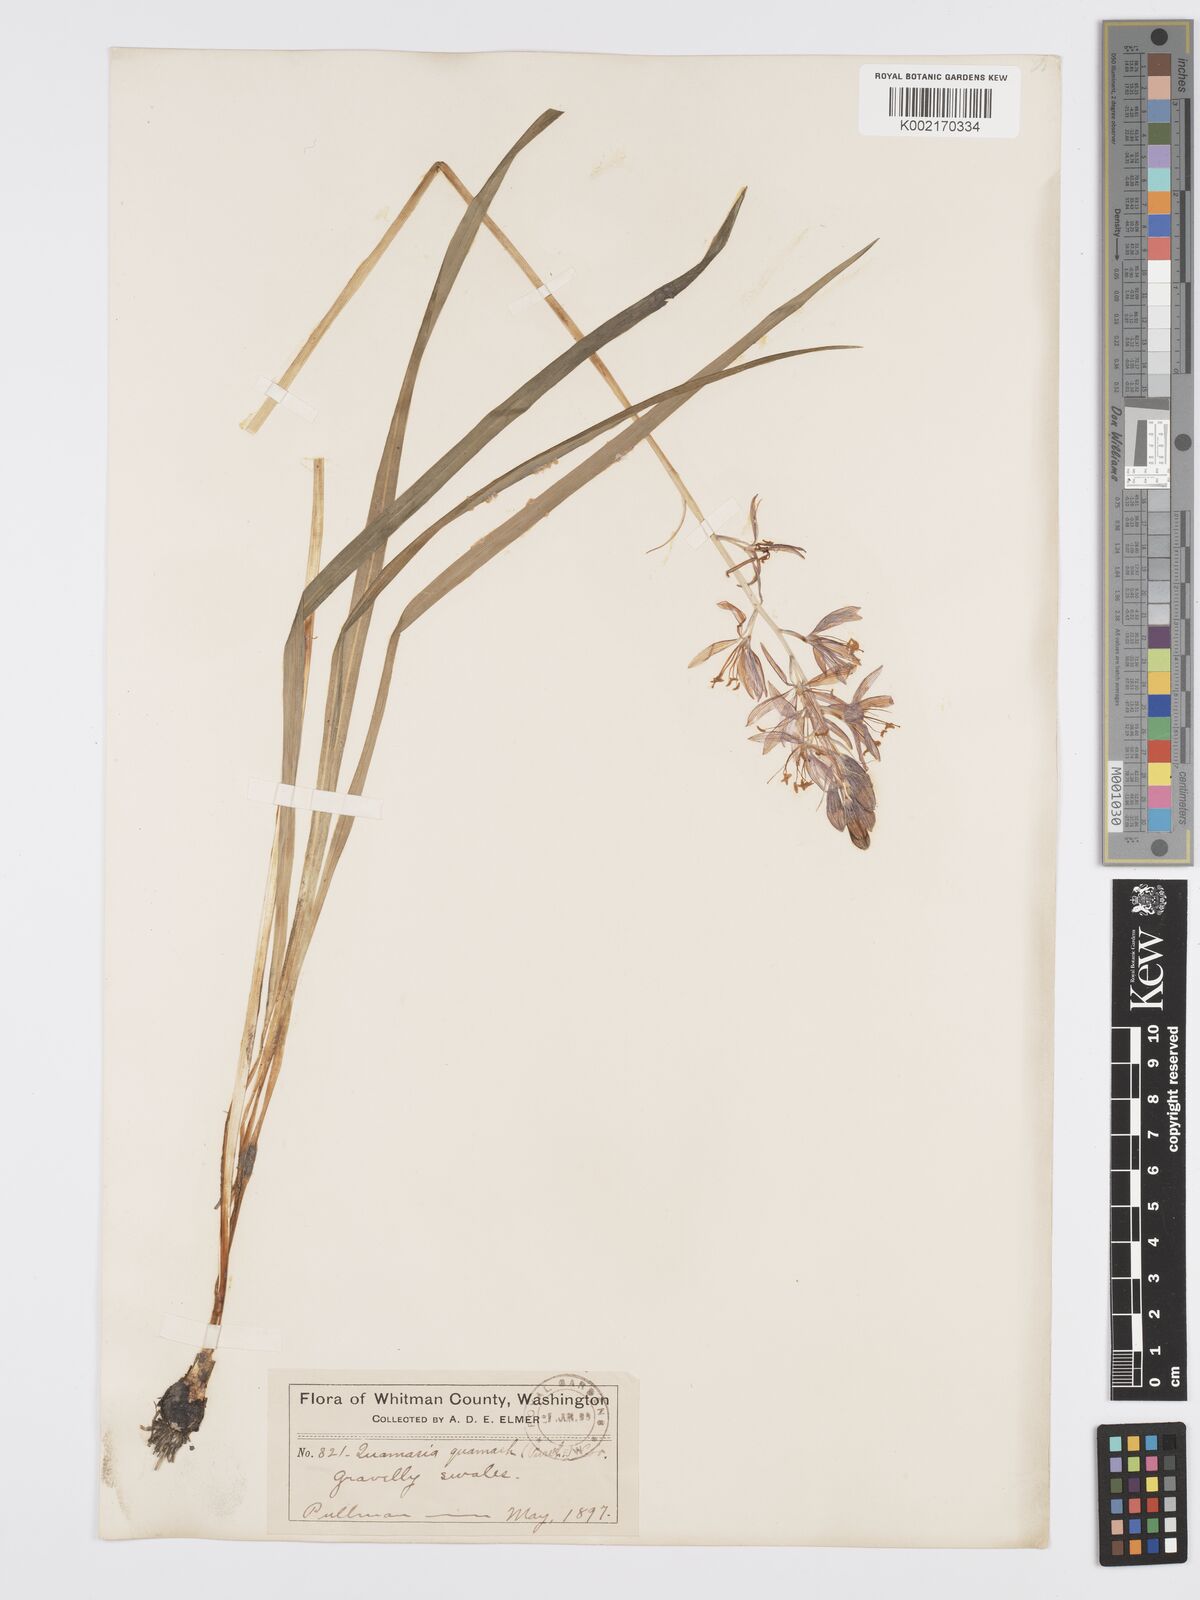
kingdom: Plantae
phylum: Tracheophyta
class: Liliopsida
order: Asparagales
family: Asparagaceae
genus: Camassia
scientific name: Camassia quamash
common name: Common camas
